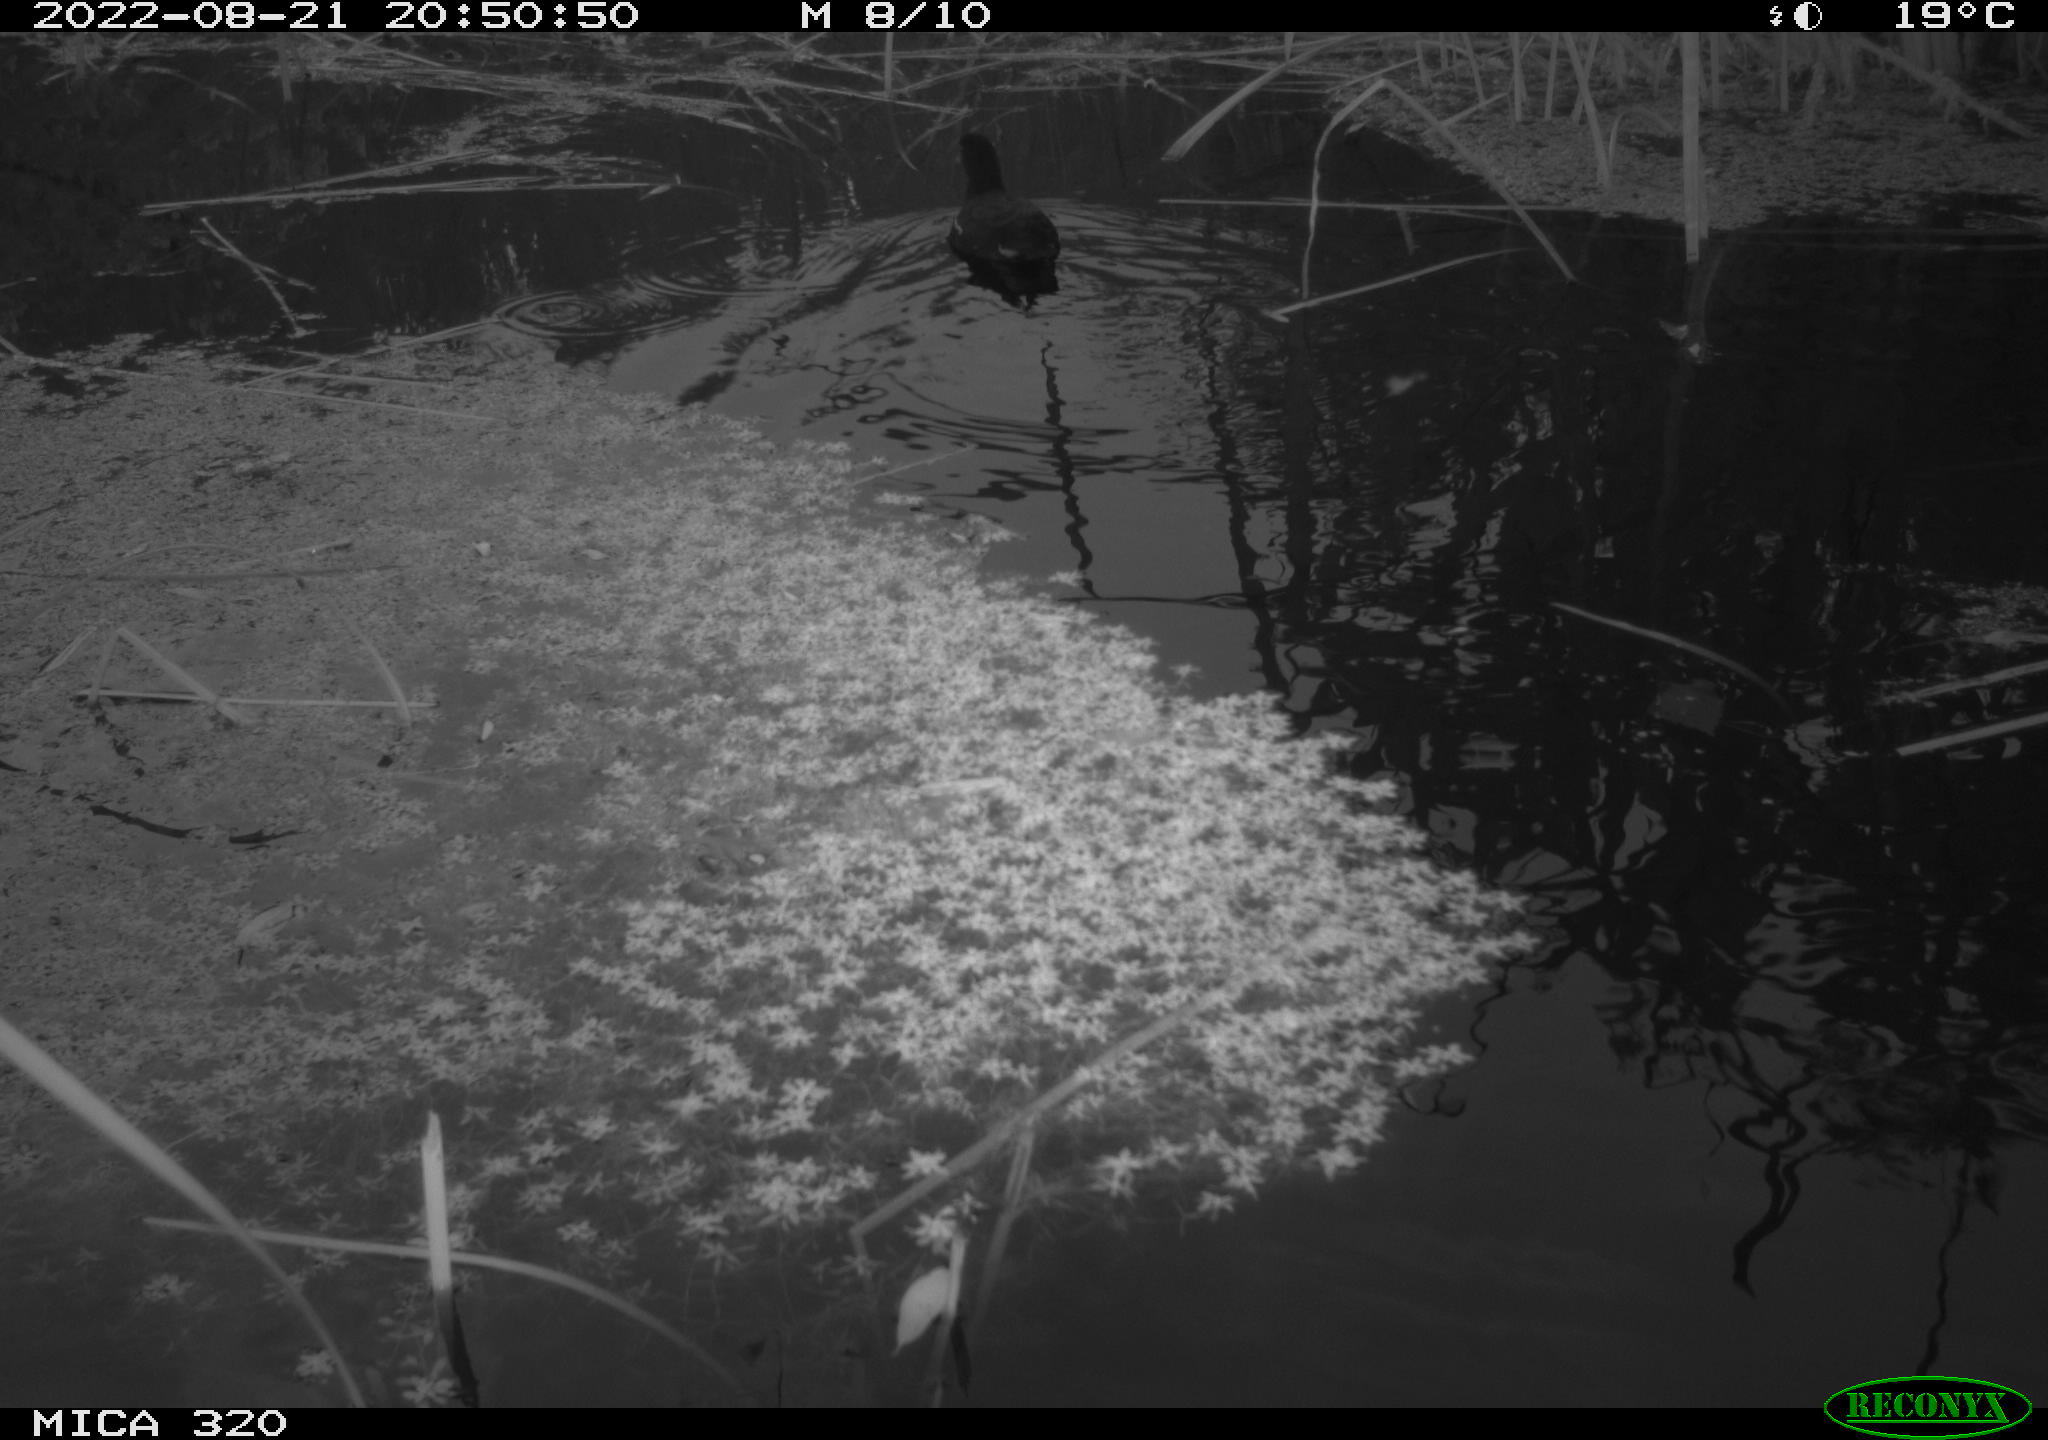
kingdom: Animalia
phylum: Chordata
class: Aves
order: Gruiformes
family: Rallidae
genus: Gallinula
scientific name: Gallinula chloropus
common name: Common moorhen
